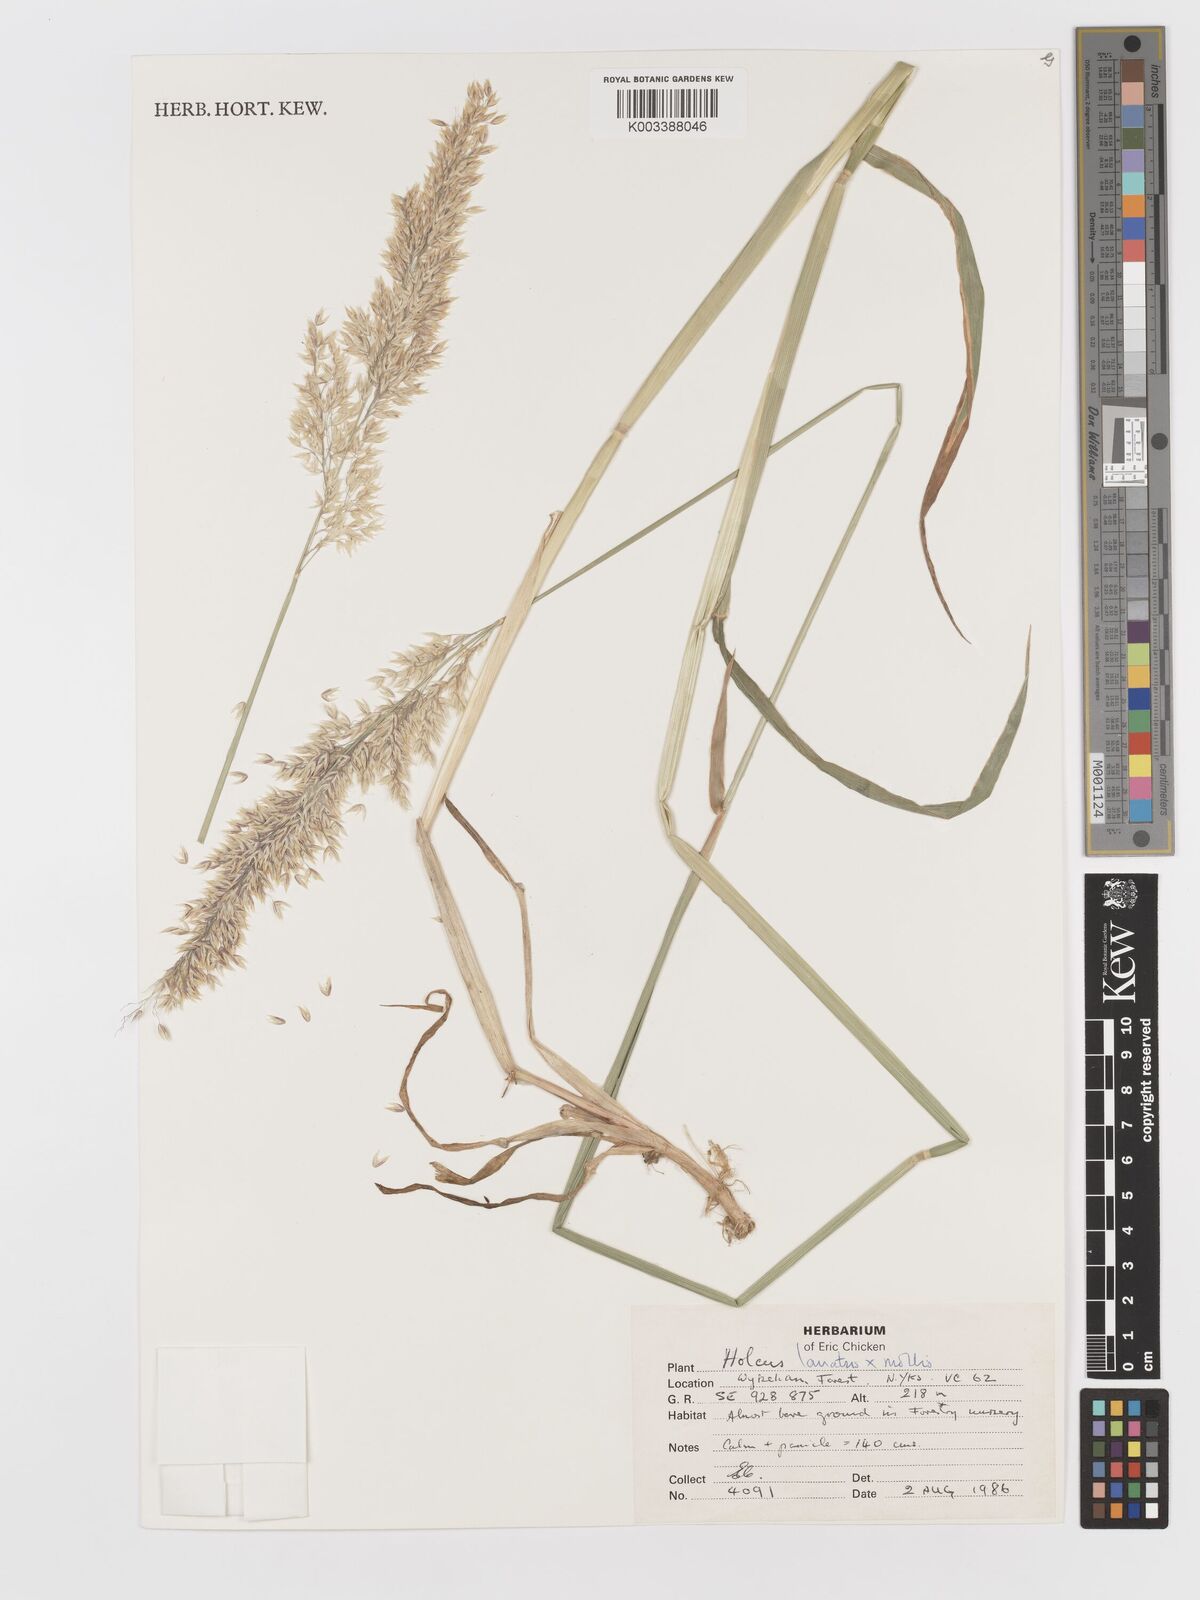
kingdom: Plantae
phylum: Tracheophyta
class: Liliopsida
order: Poales
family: Poaceae
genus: Holcus
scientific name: Holcus lanatus
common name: Yorkshire-fog
